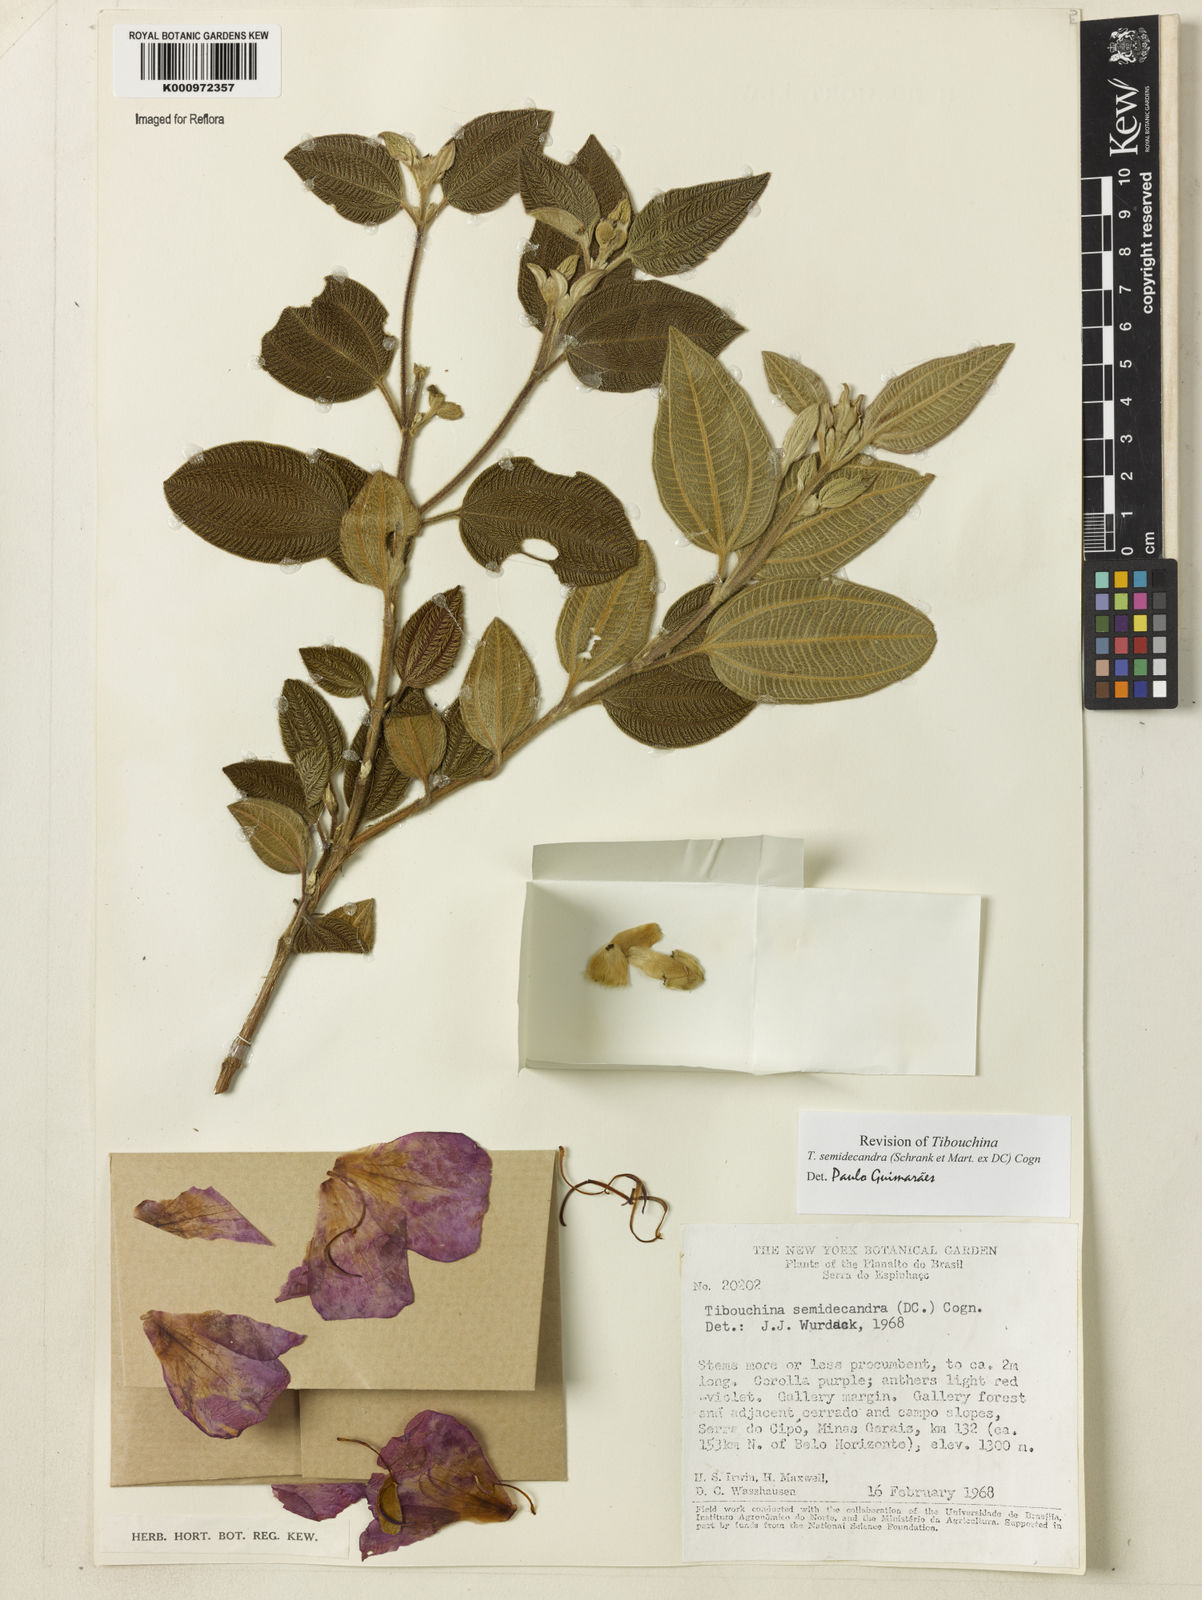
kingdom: Plantae
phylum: Tracheophyta
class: Magnoliopsida
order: Myrtales
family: Melastomataceae
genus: Pleroma
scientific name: Pleroma semidecandrum
